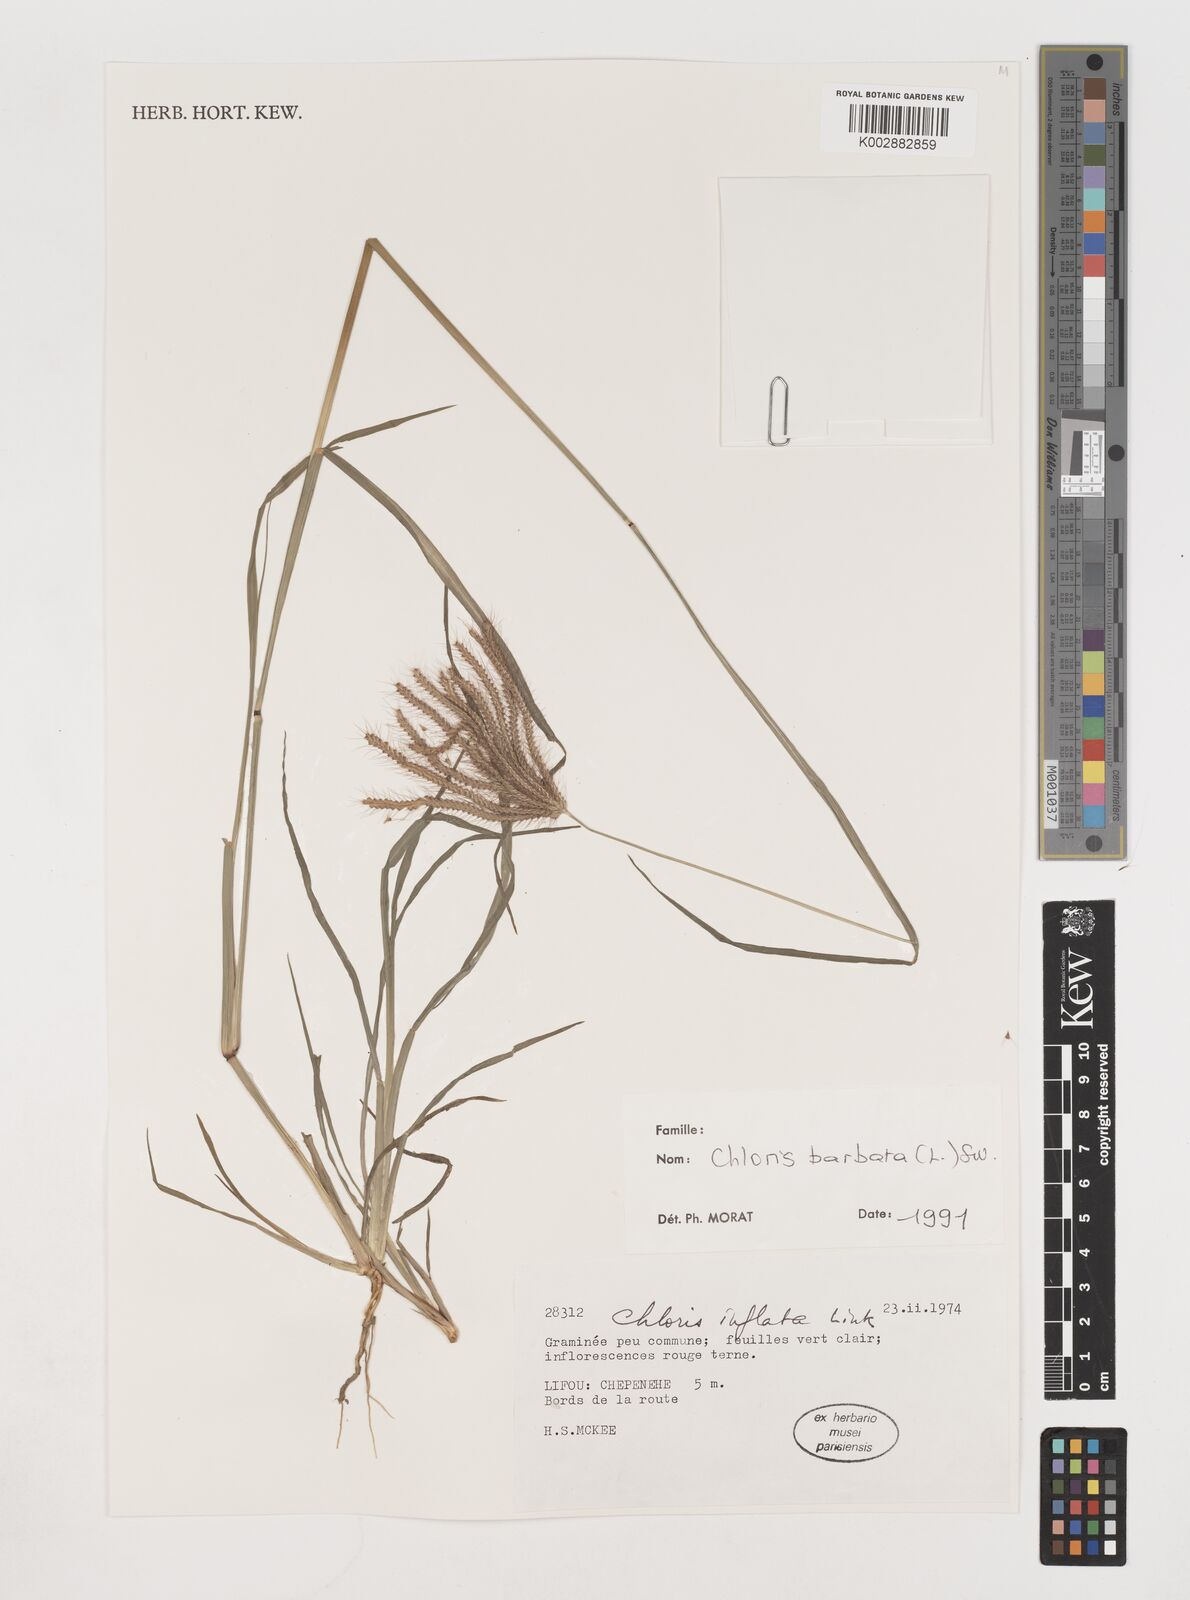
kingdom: Plantae
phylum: Tracheophyta
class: Liliopsida
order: Poales
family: Poaceae
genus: Chloris
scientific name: Chloris barbata
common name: Swollen fingergrass
